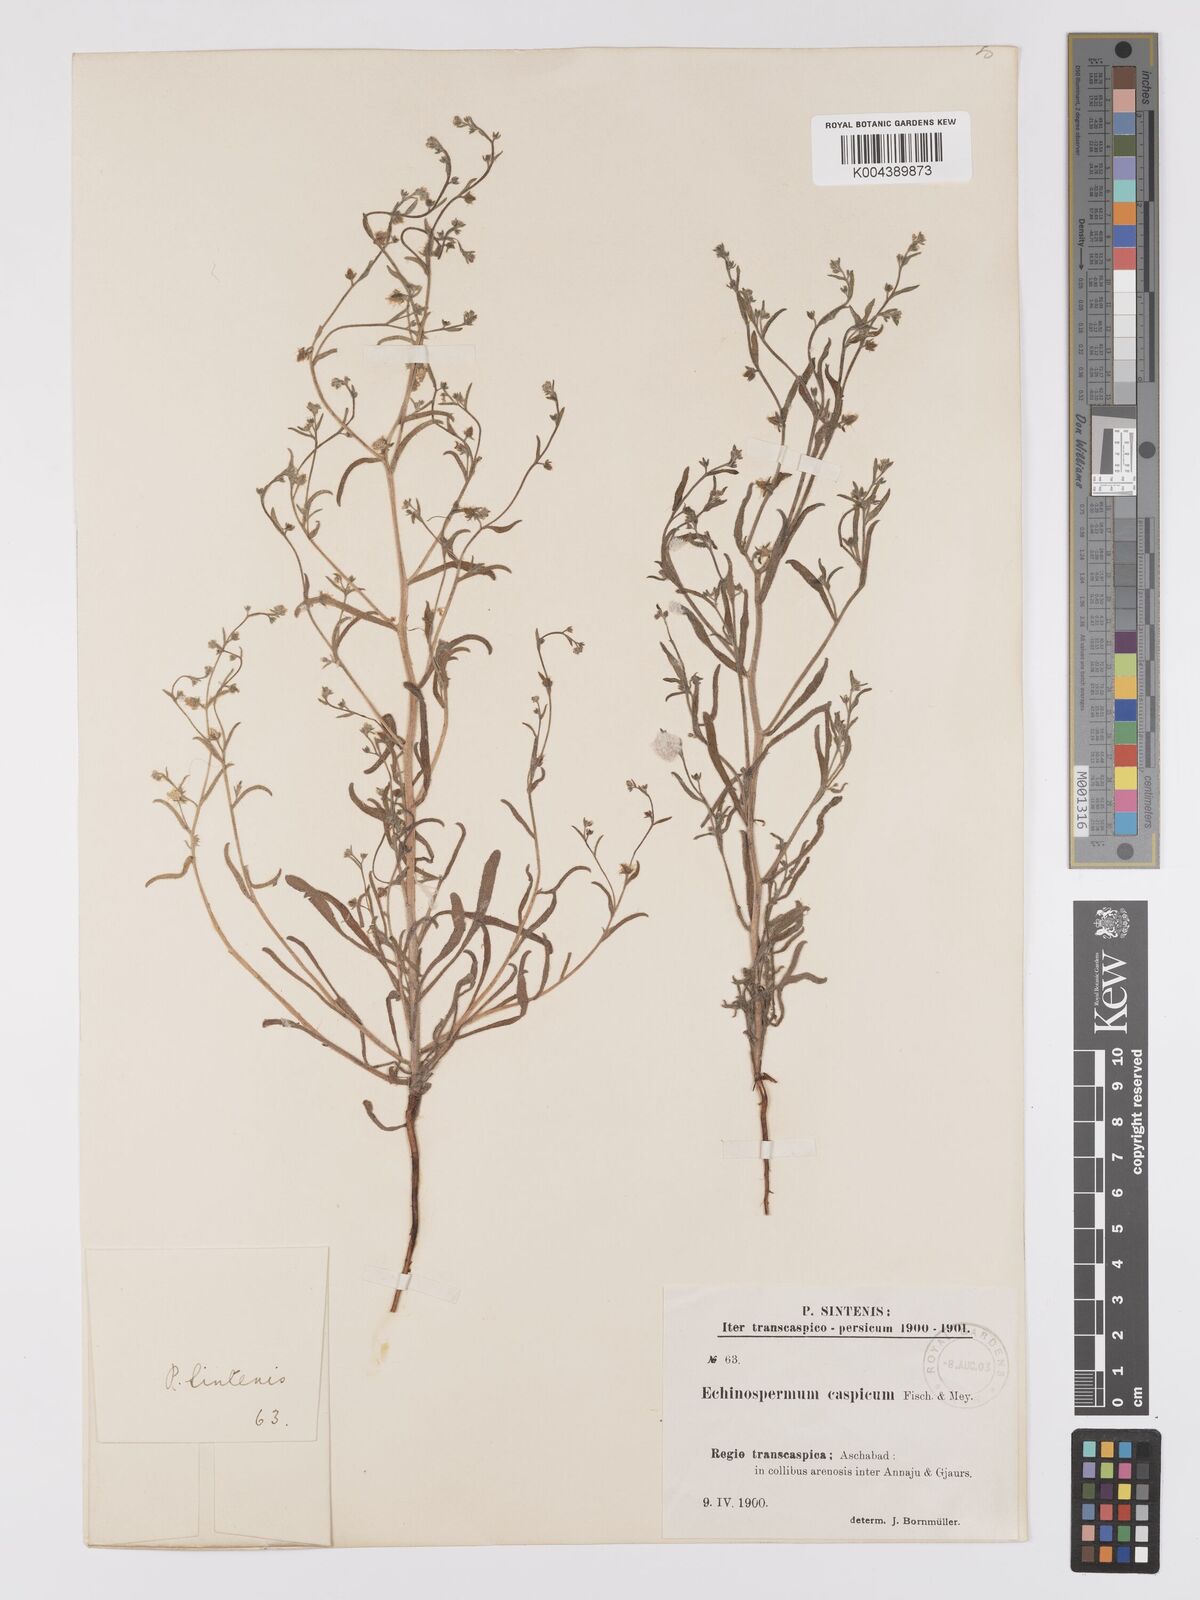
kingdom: Plantae
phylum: Tracheophyta
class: Magnoliopsida
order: Boraginales
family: Boraginaceae
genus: Lappula
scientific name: Lappula patula
